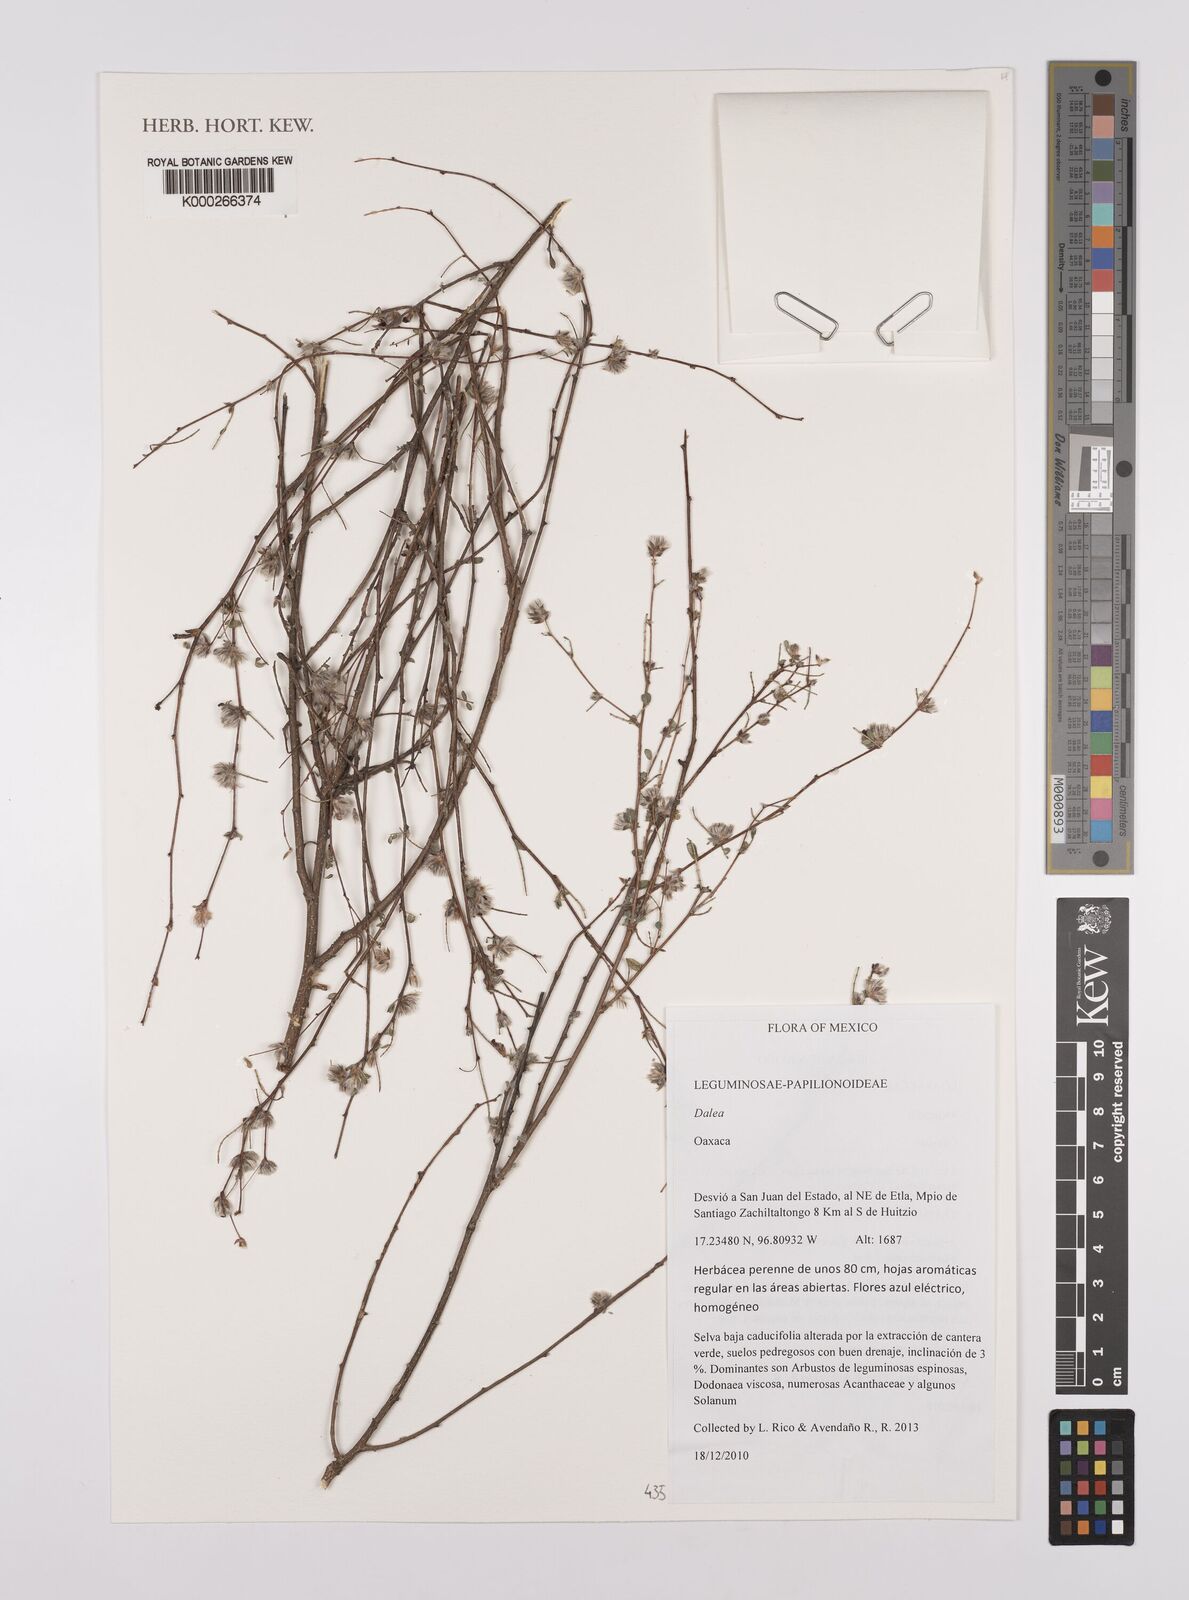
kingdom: Plantae
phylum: Tracheophyta
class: Magnoliopsida
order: Fabales
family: Fabaceae
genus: Dalea
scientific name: Dalea
